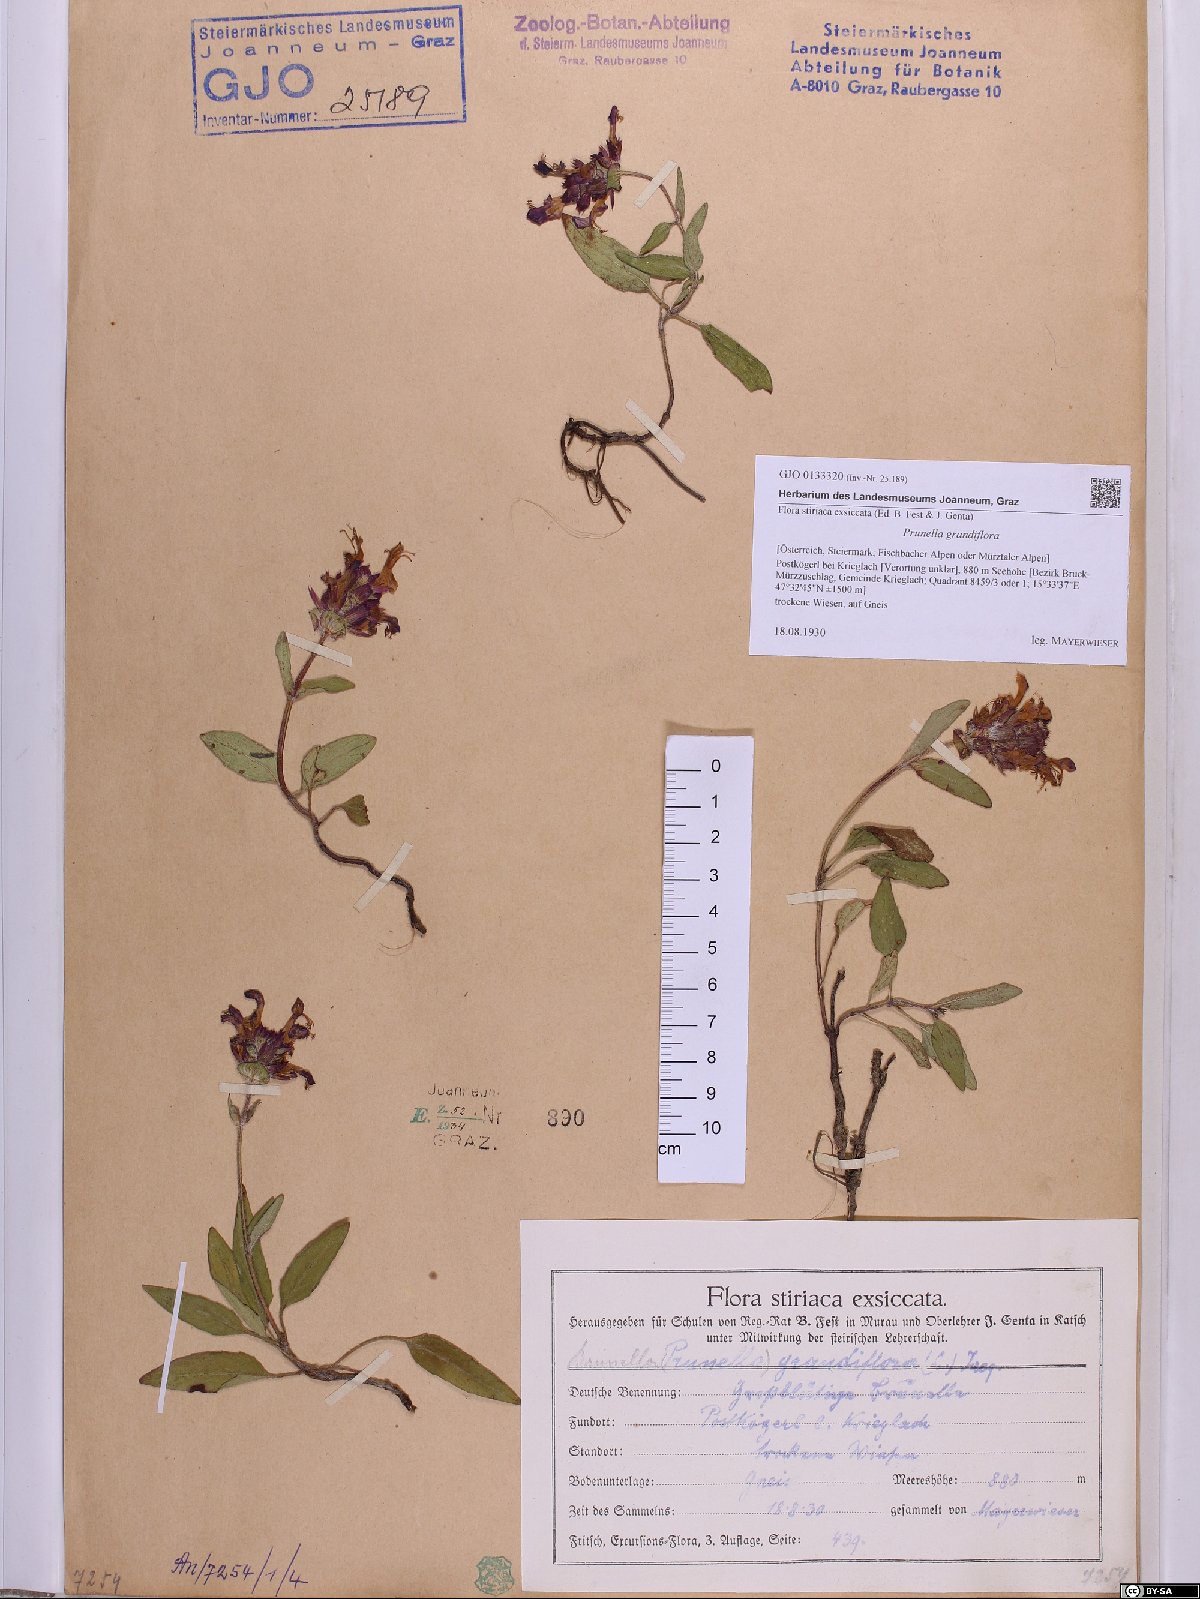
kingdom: Plantae
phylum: Tracheophyta
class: Magnoliopsida
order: Lamiales
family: Lamiaceae
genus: Prunella
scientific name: Prunella grandiflora
